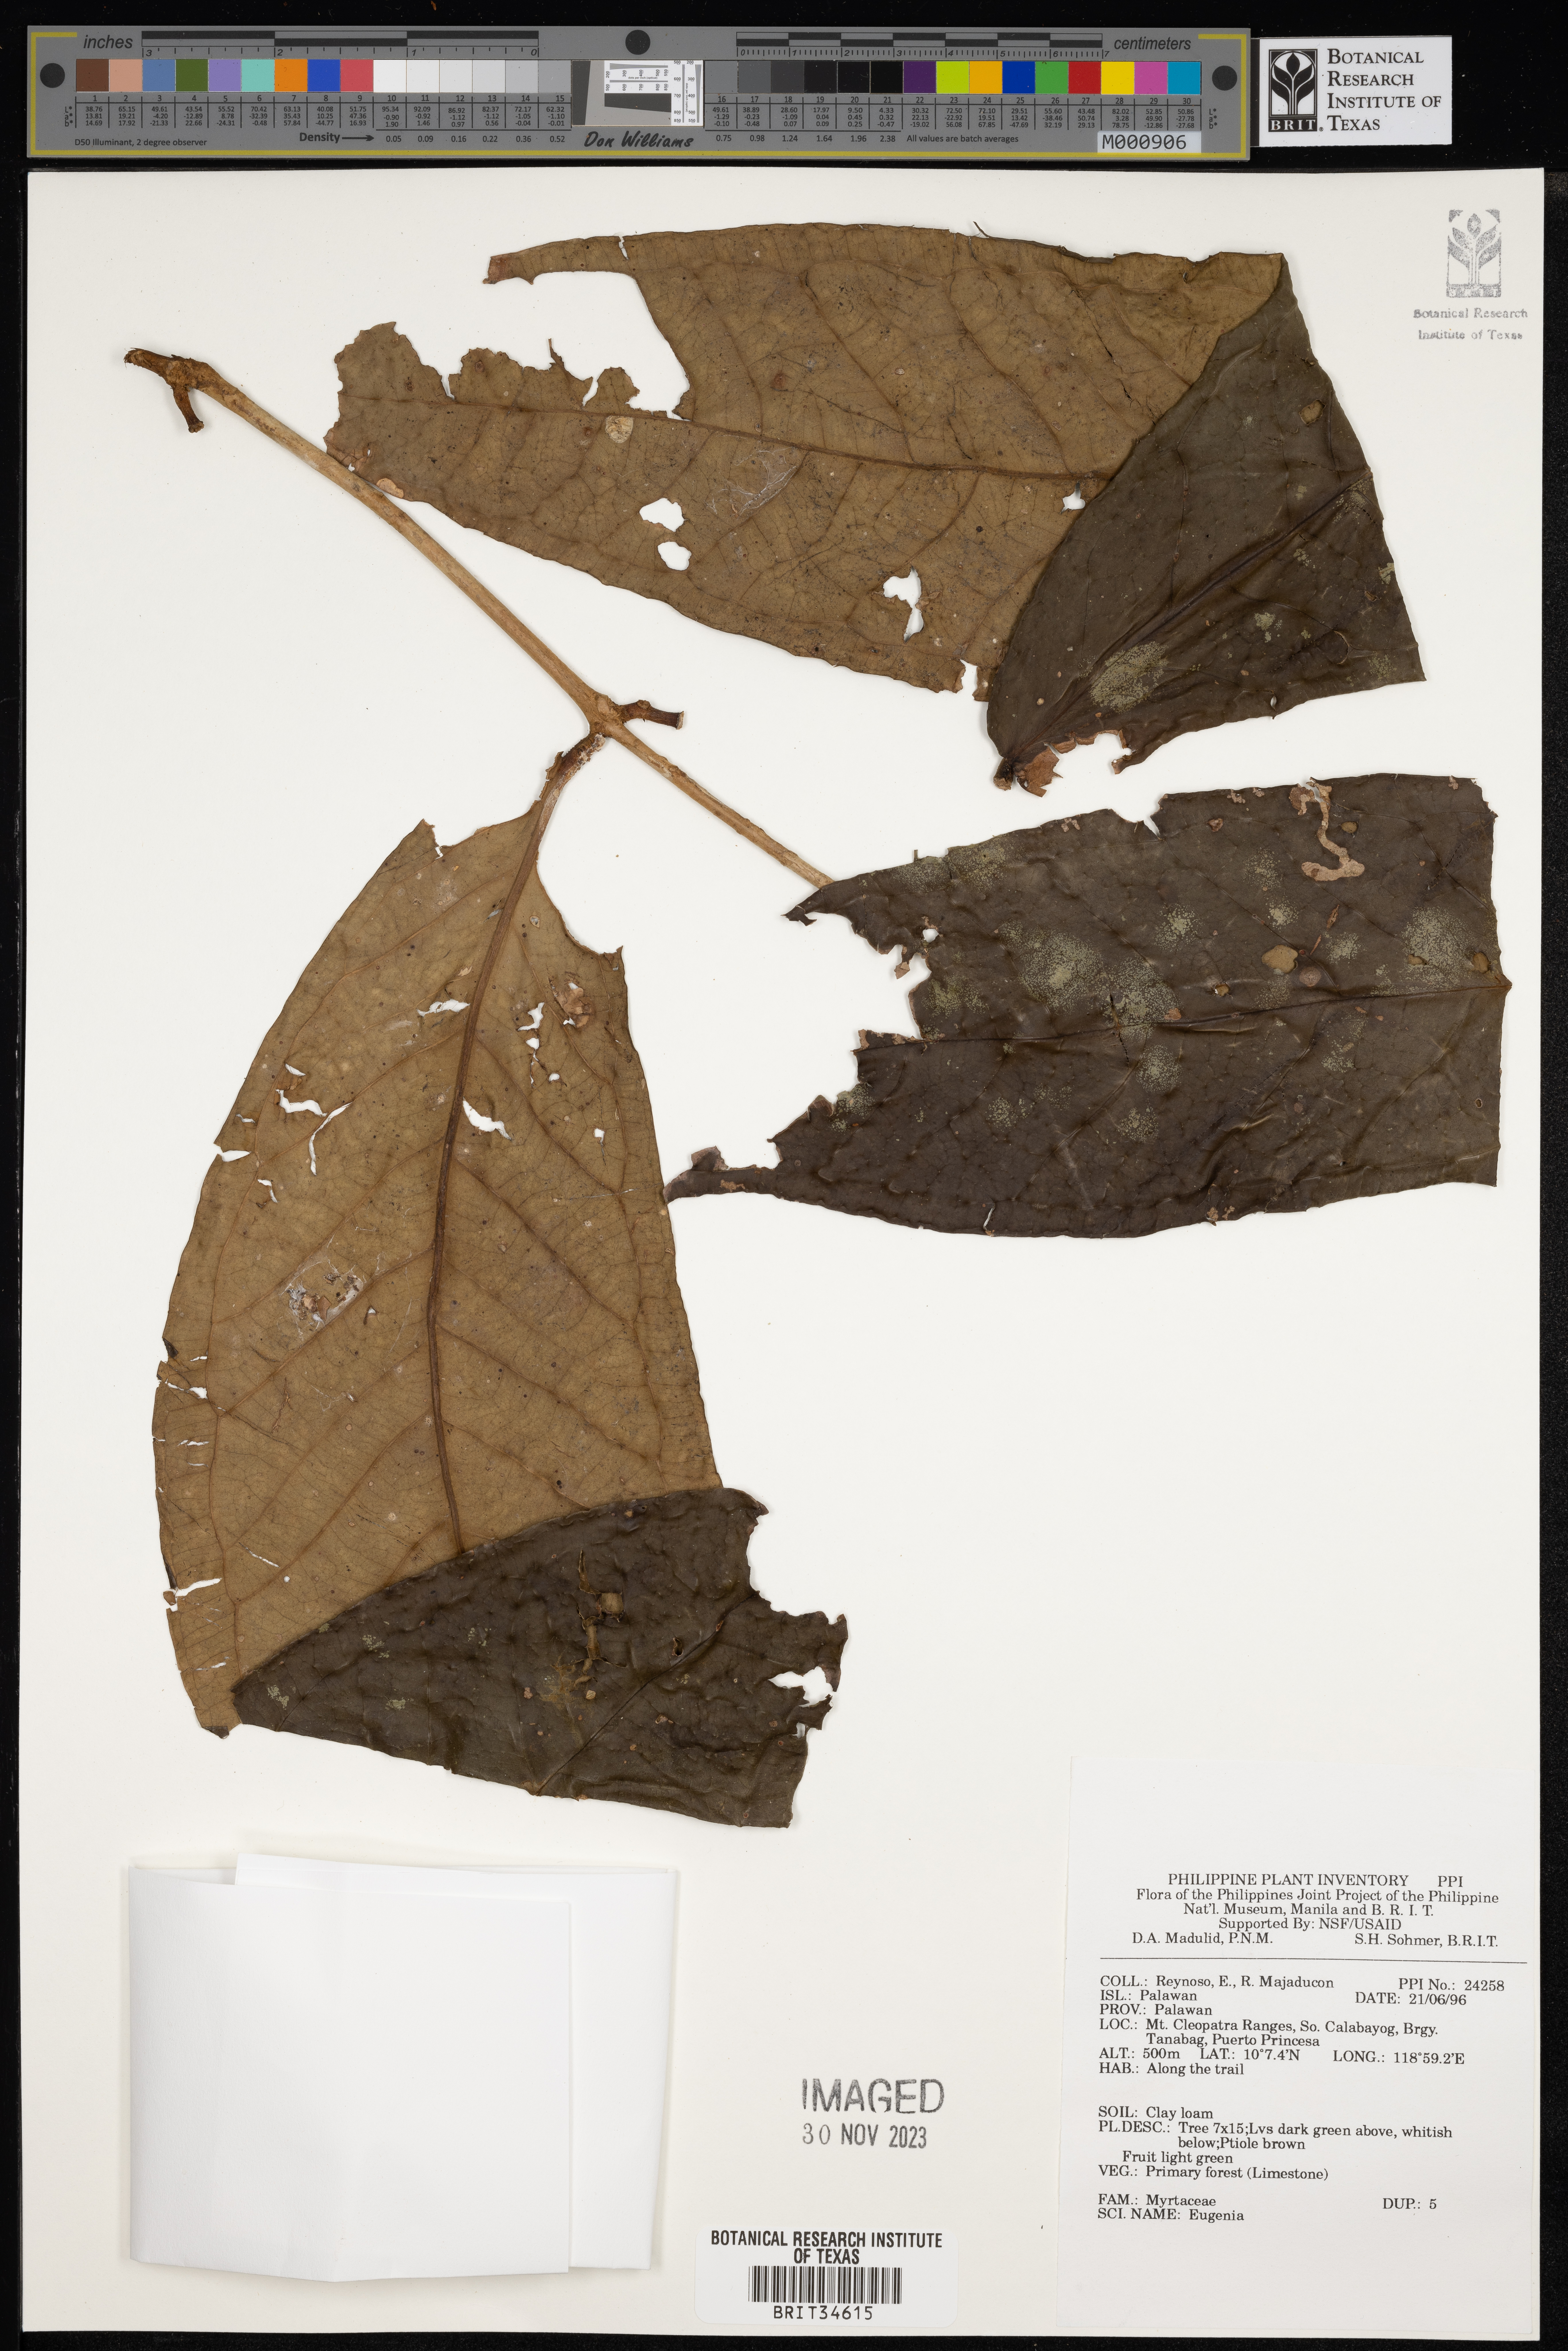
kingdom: Plantae
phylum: Tracheophyta
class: Magnoliopsida
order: Myrtales
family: Myrtaceae
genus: Eugenia
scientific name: Eugenia
